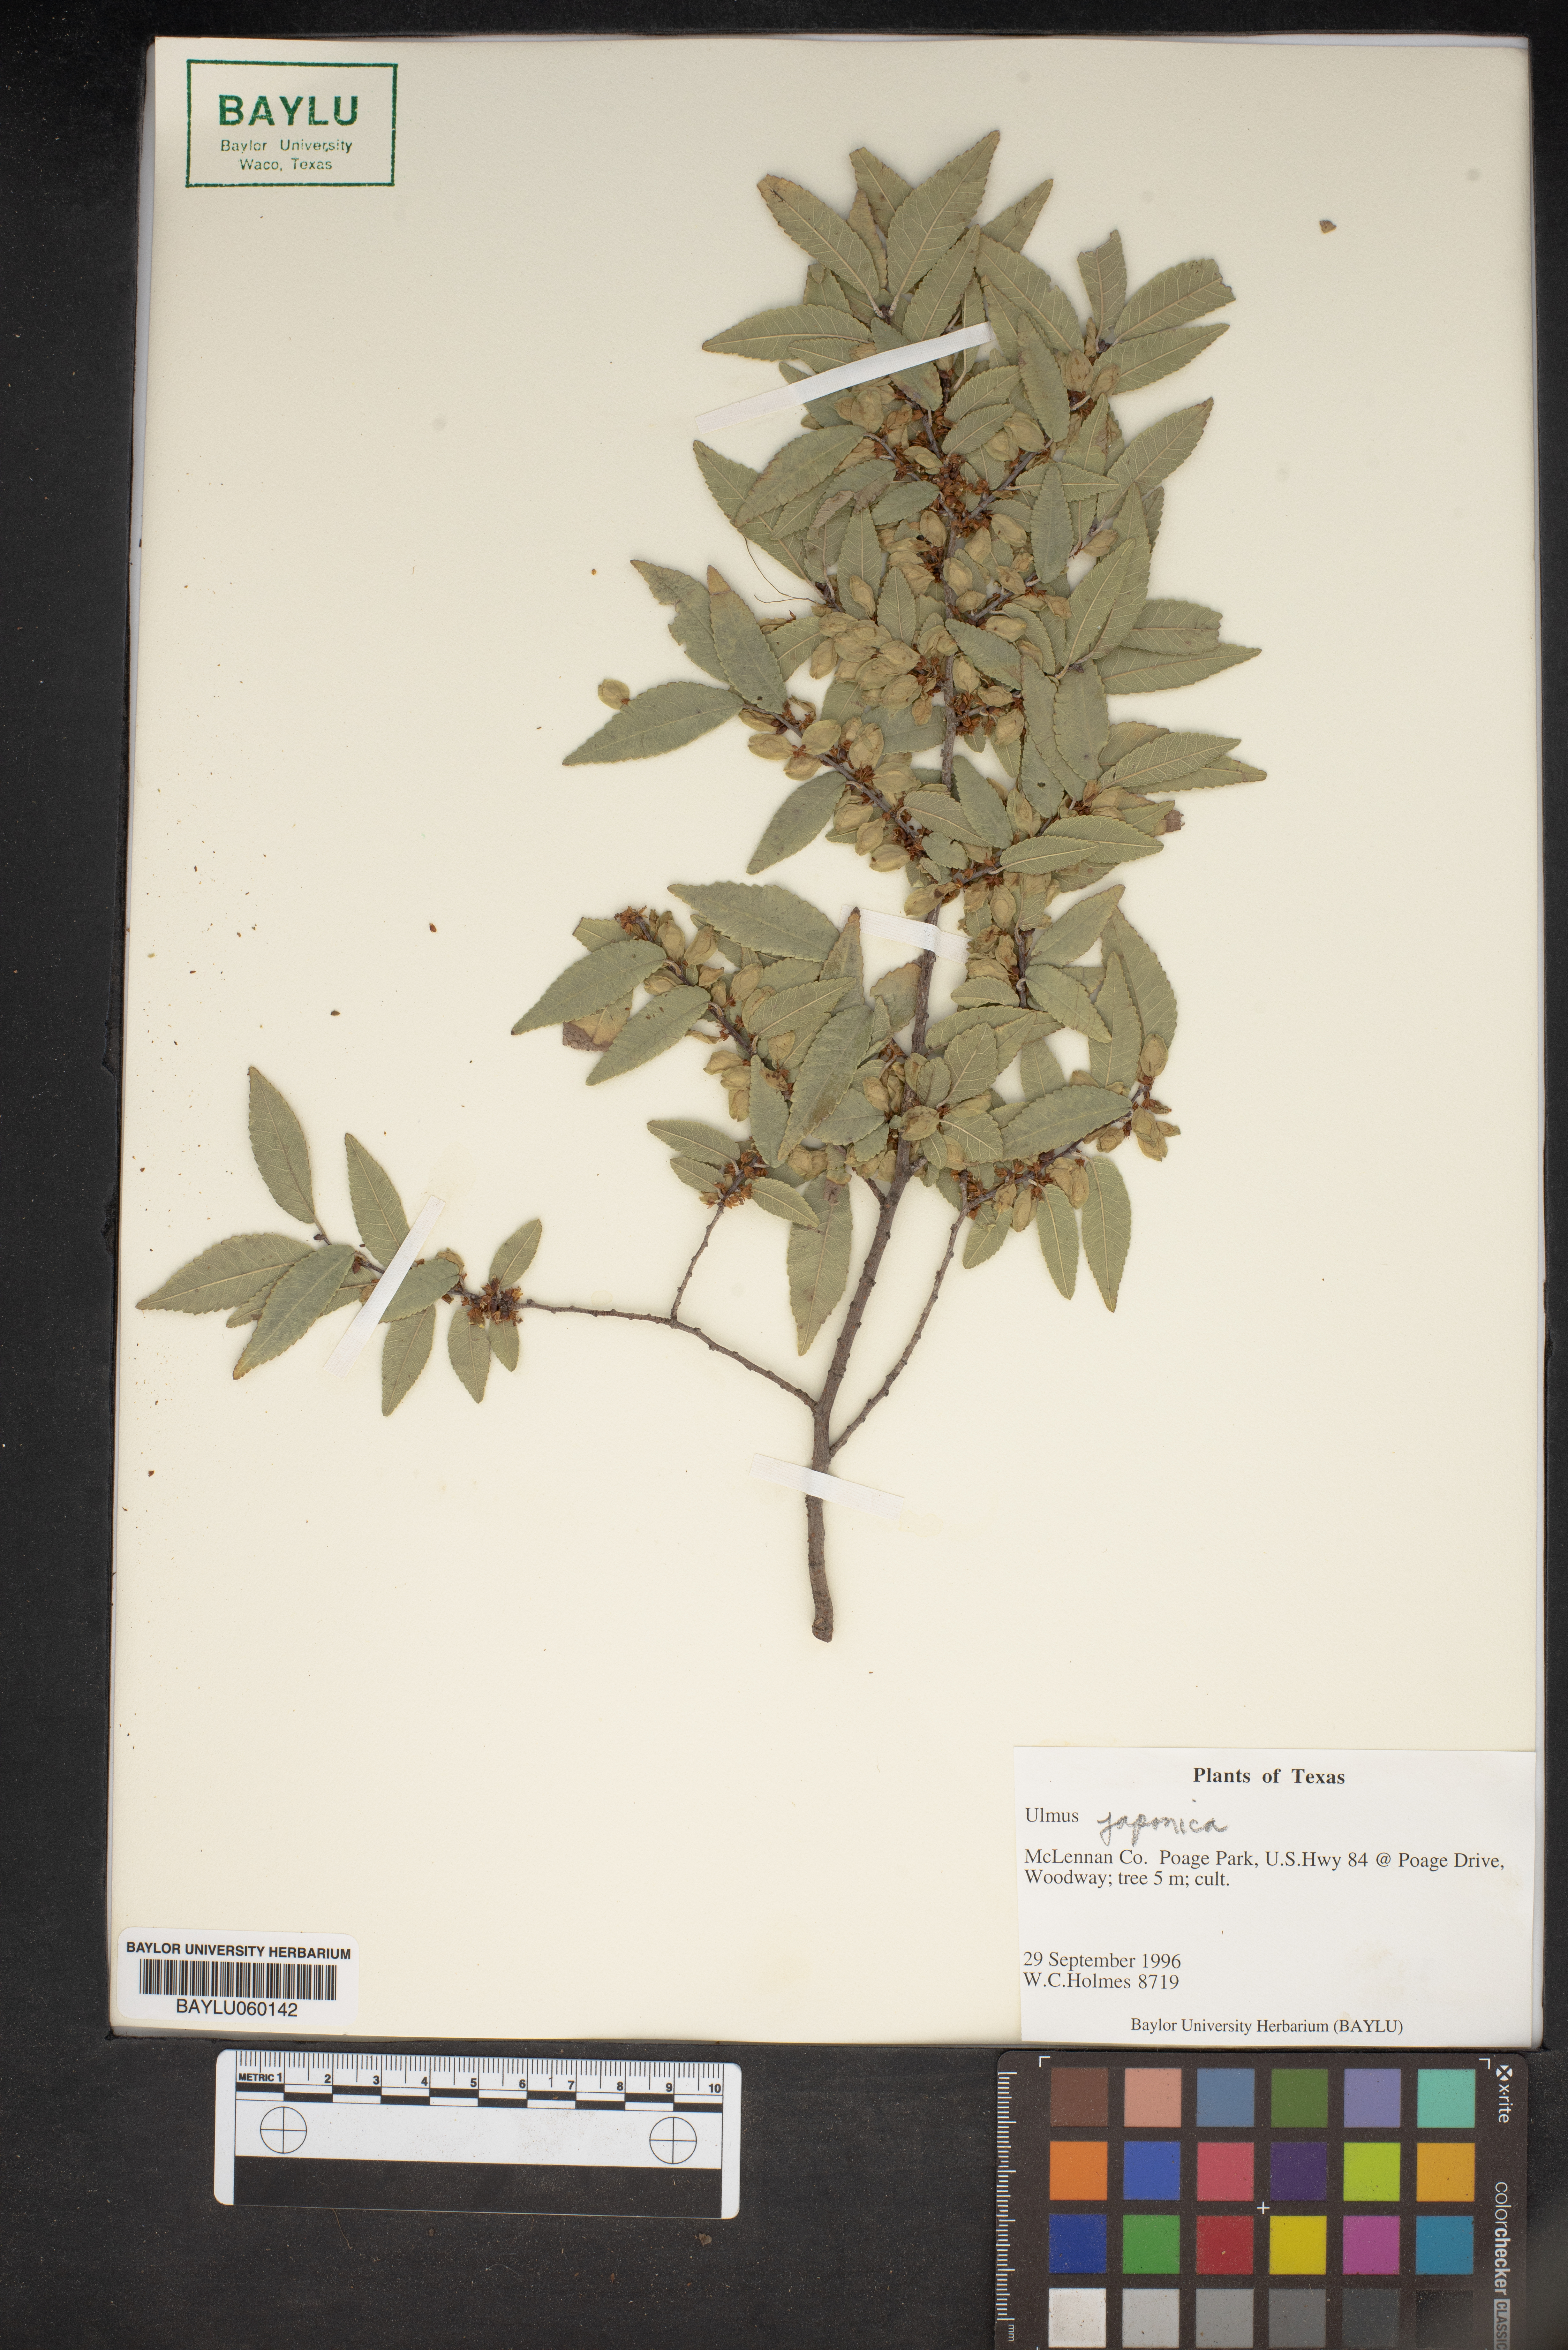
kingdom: Plantae
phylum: Tracheophyta
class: Magnoliopsida
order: Rosales
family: Ulmaceae
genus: Ulmus
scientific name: Ulmus davidiana
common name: Japanese elm
